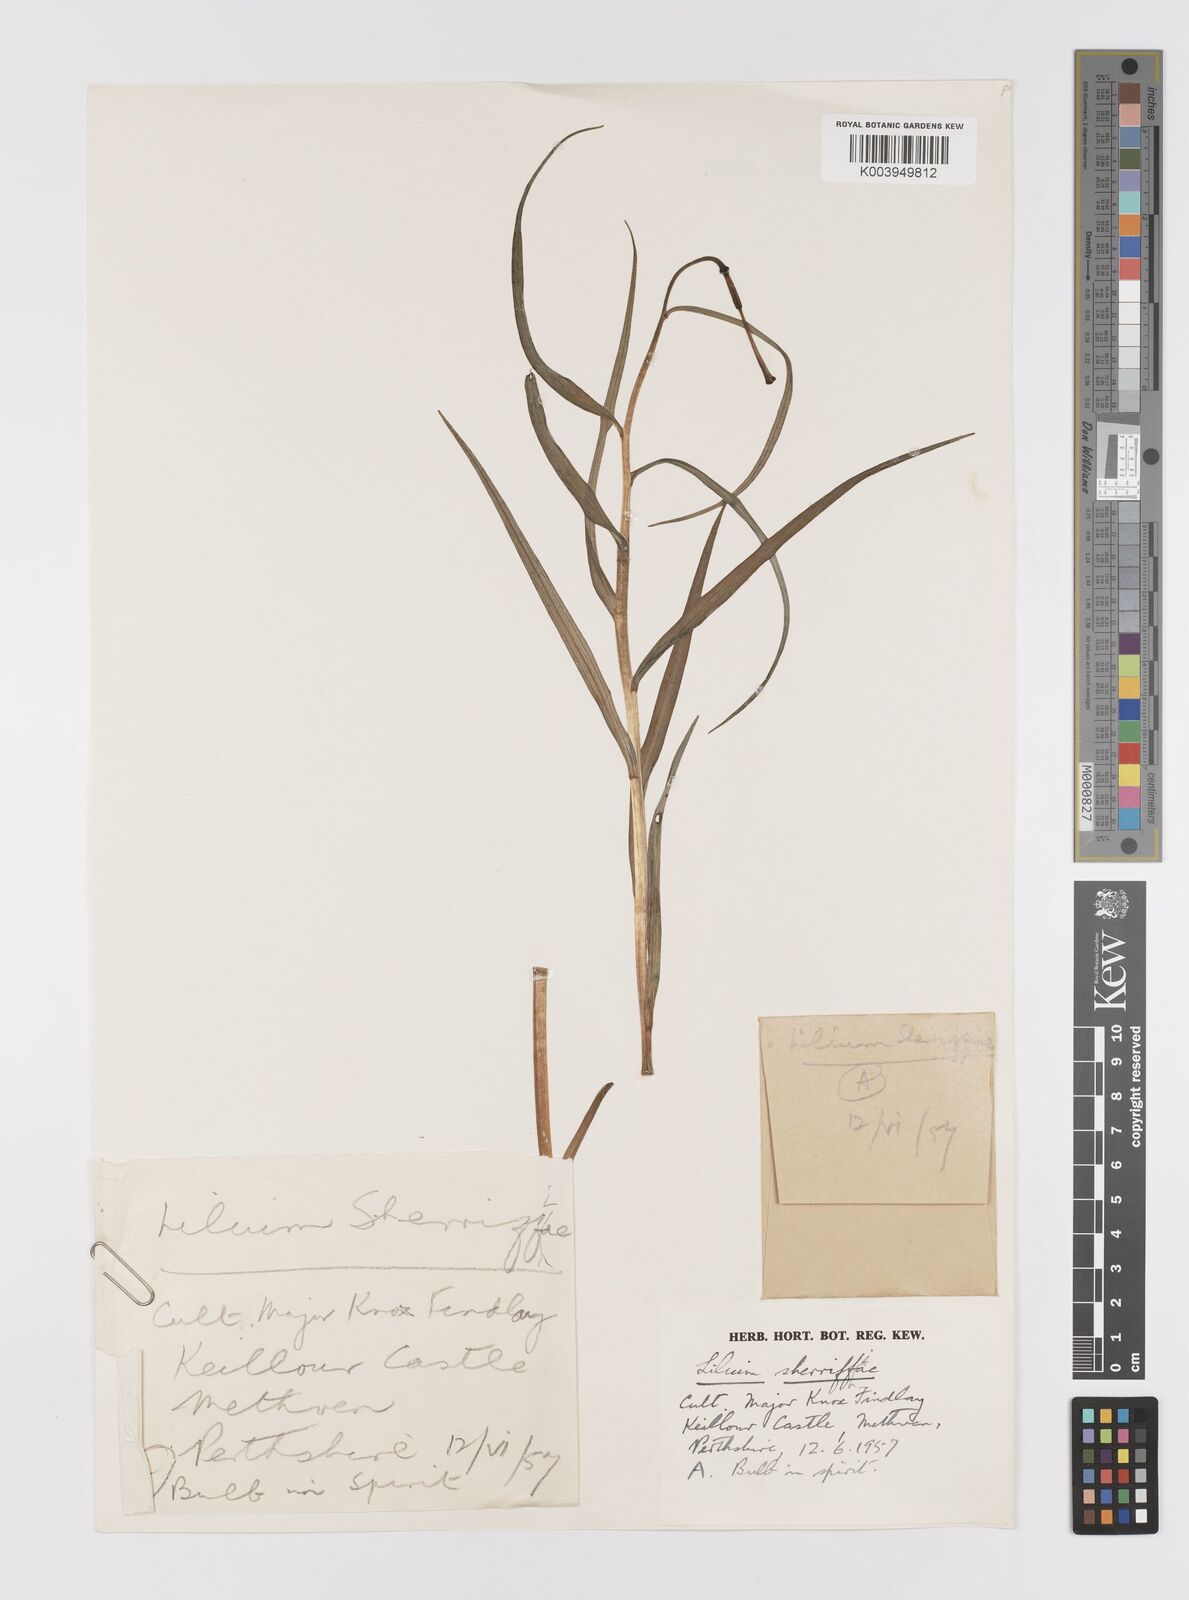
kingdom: Plantae
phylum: Tracheophyta
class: Liliopsida
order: Liliales
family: Liliaceae
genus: Lilium
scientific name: Lilium sherriffiae
